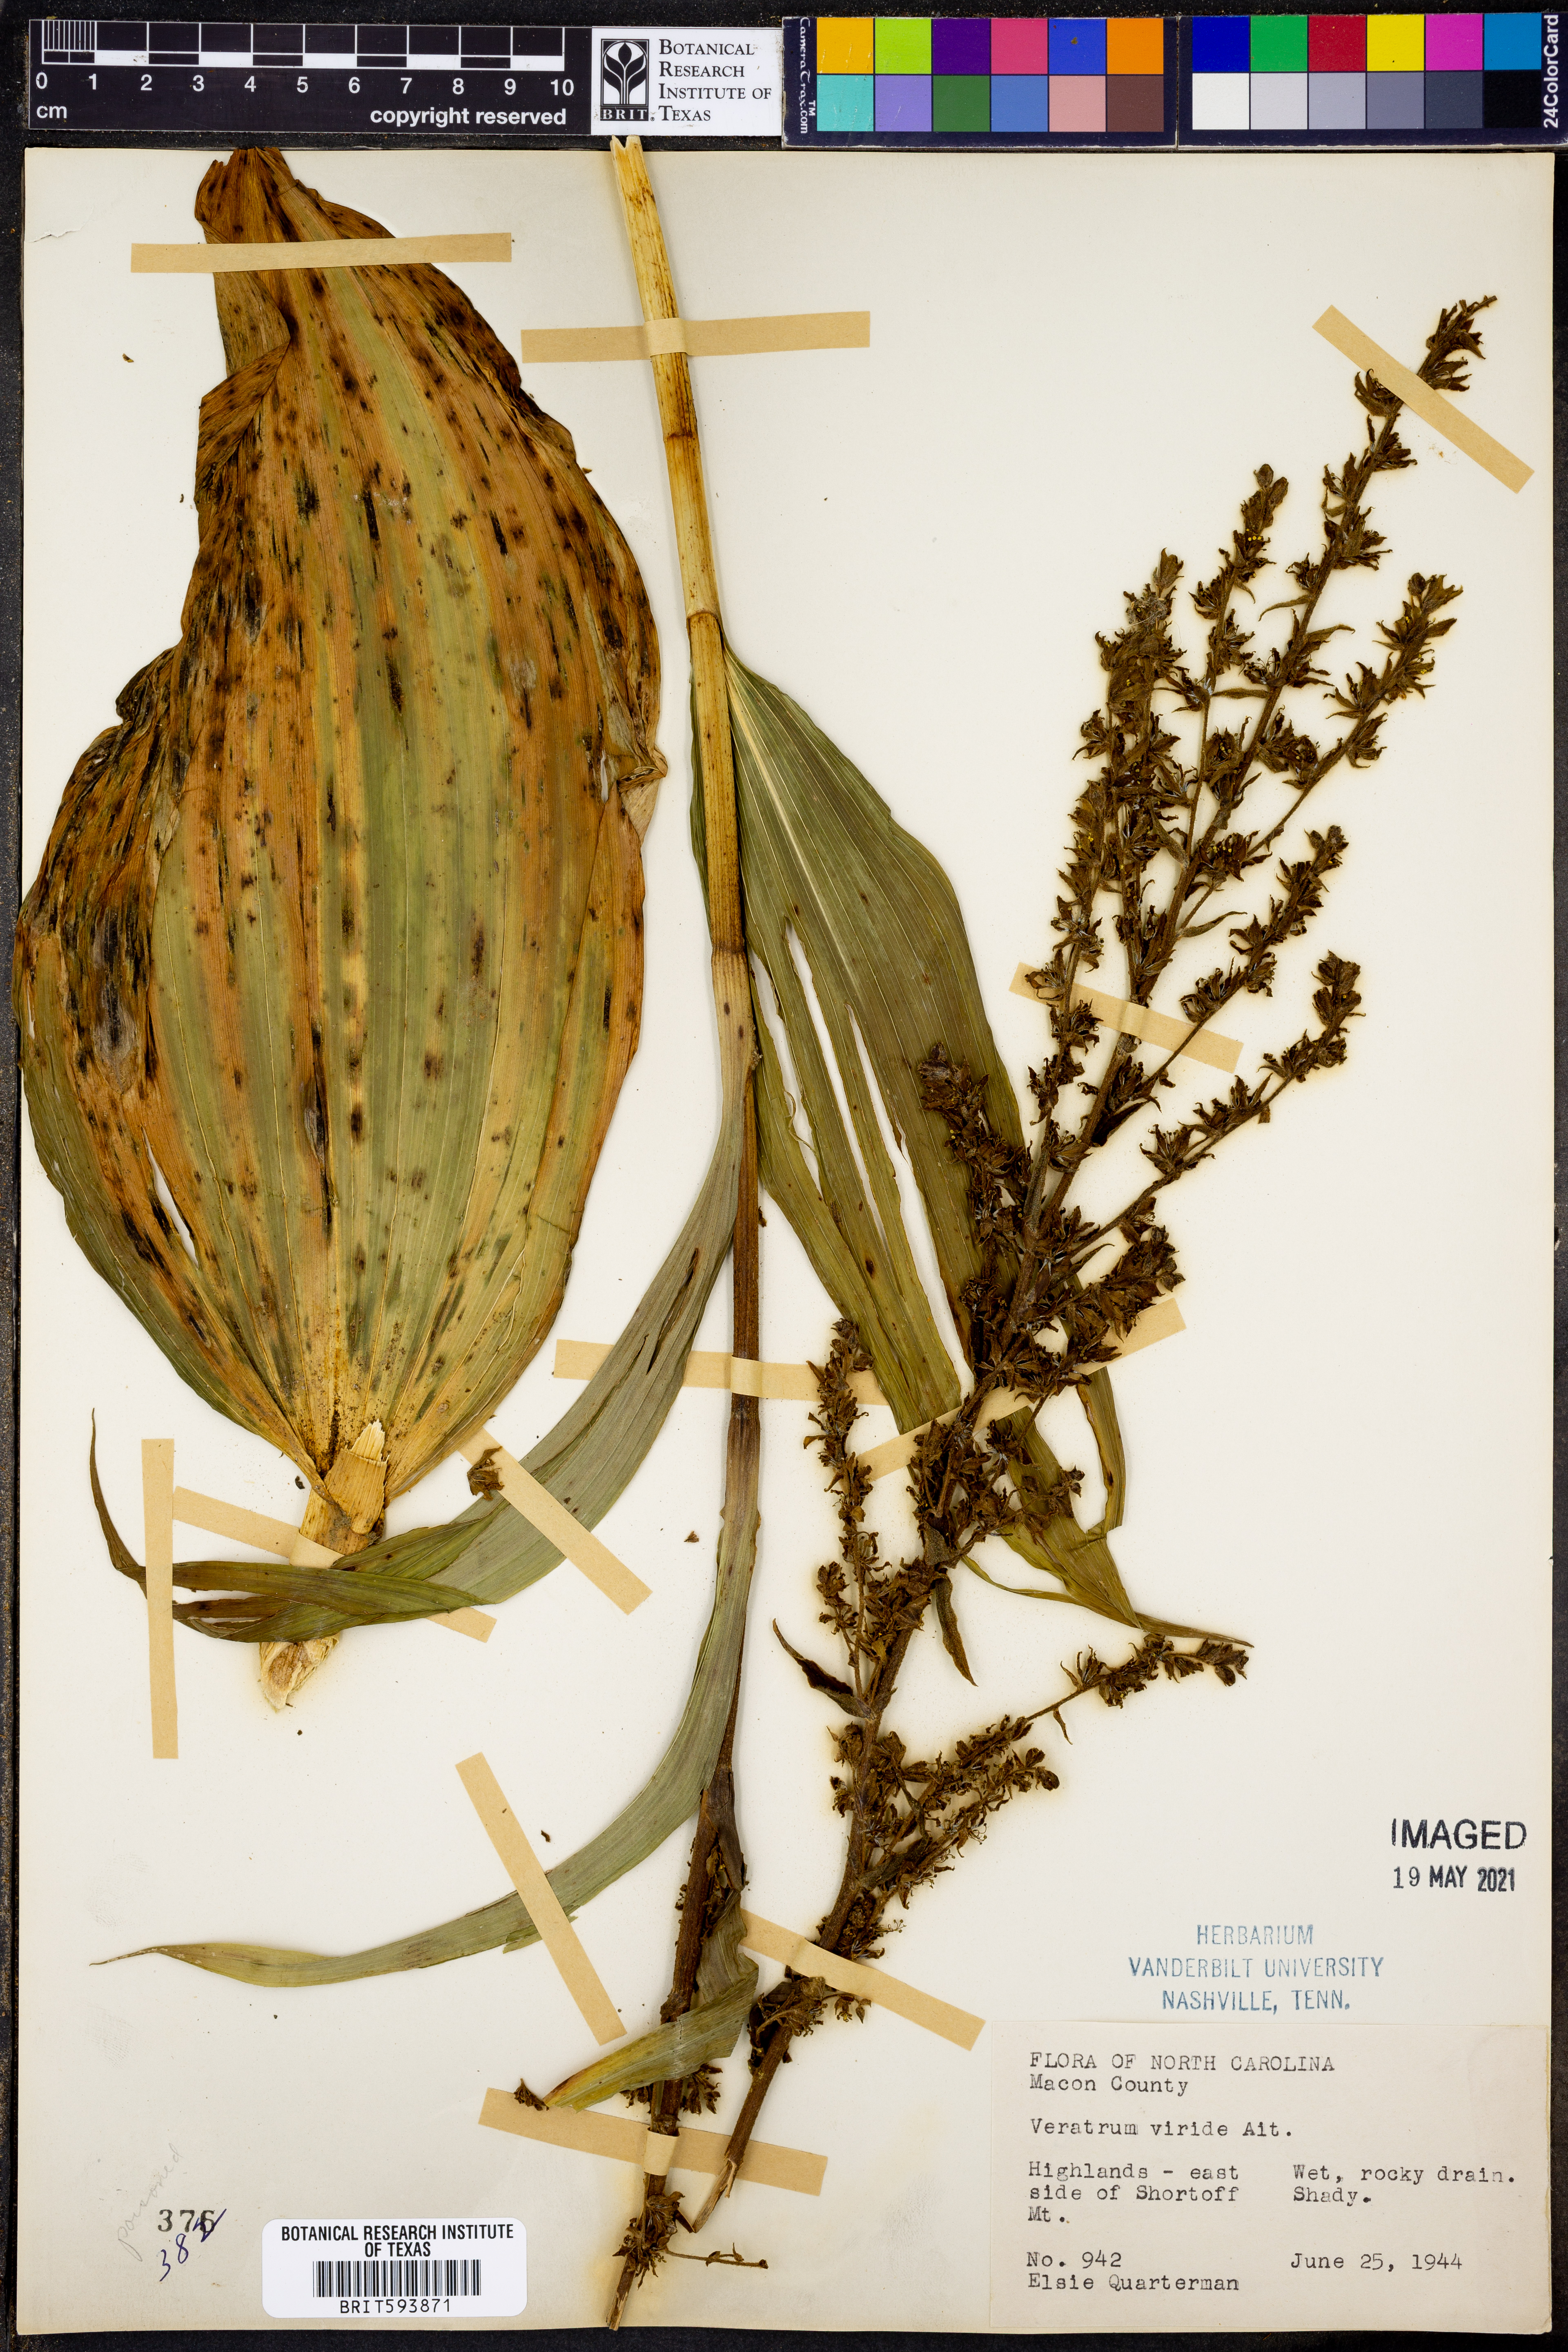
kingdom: Plantae
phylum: Tracheophyta
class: Liliopsida
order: Liliales
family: Melanthiaceae
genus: Veratrum
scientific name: Veratrum viride
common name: American false hellebore
